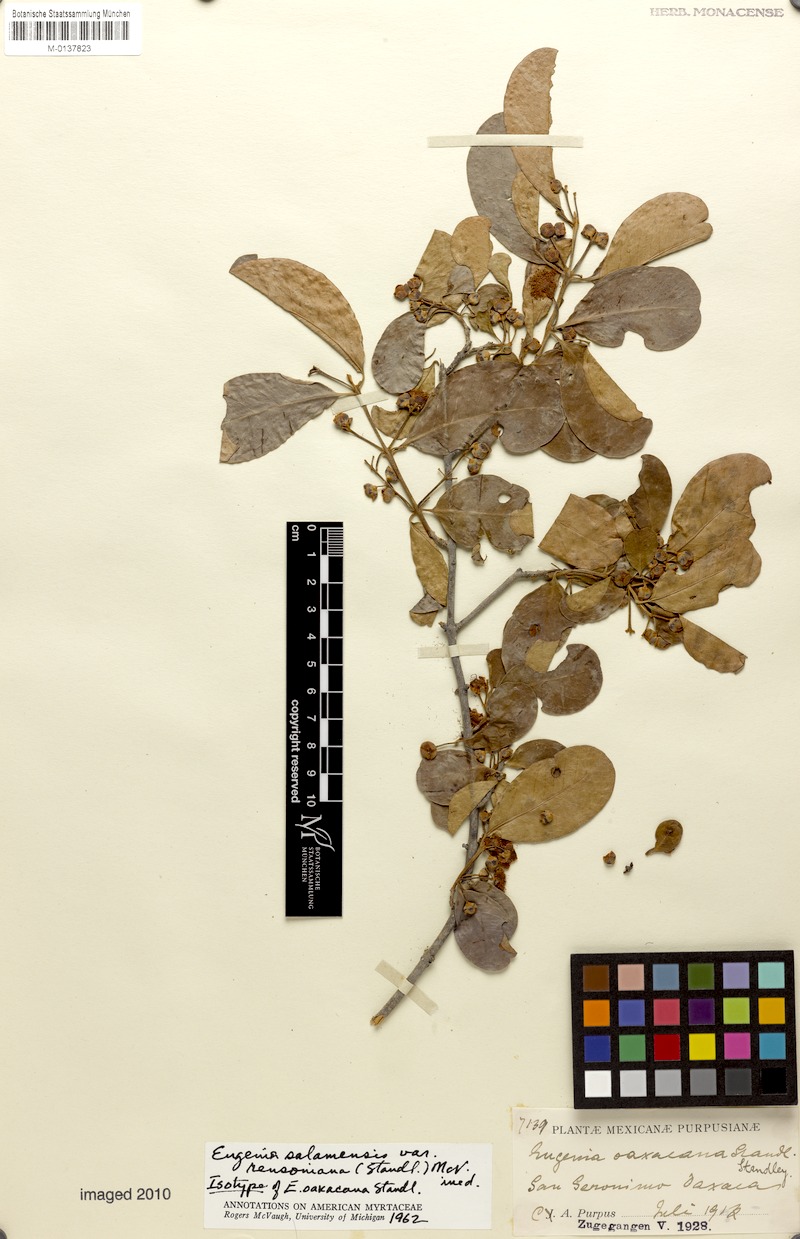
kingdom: Plantae
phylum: Tracheophyta
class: Magnoliopsida
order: Myrtales
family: Myrtaceae
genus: Eugenia
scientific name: Eugenia purpusii
